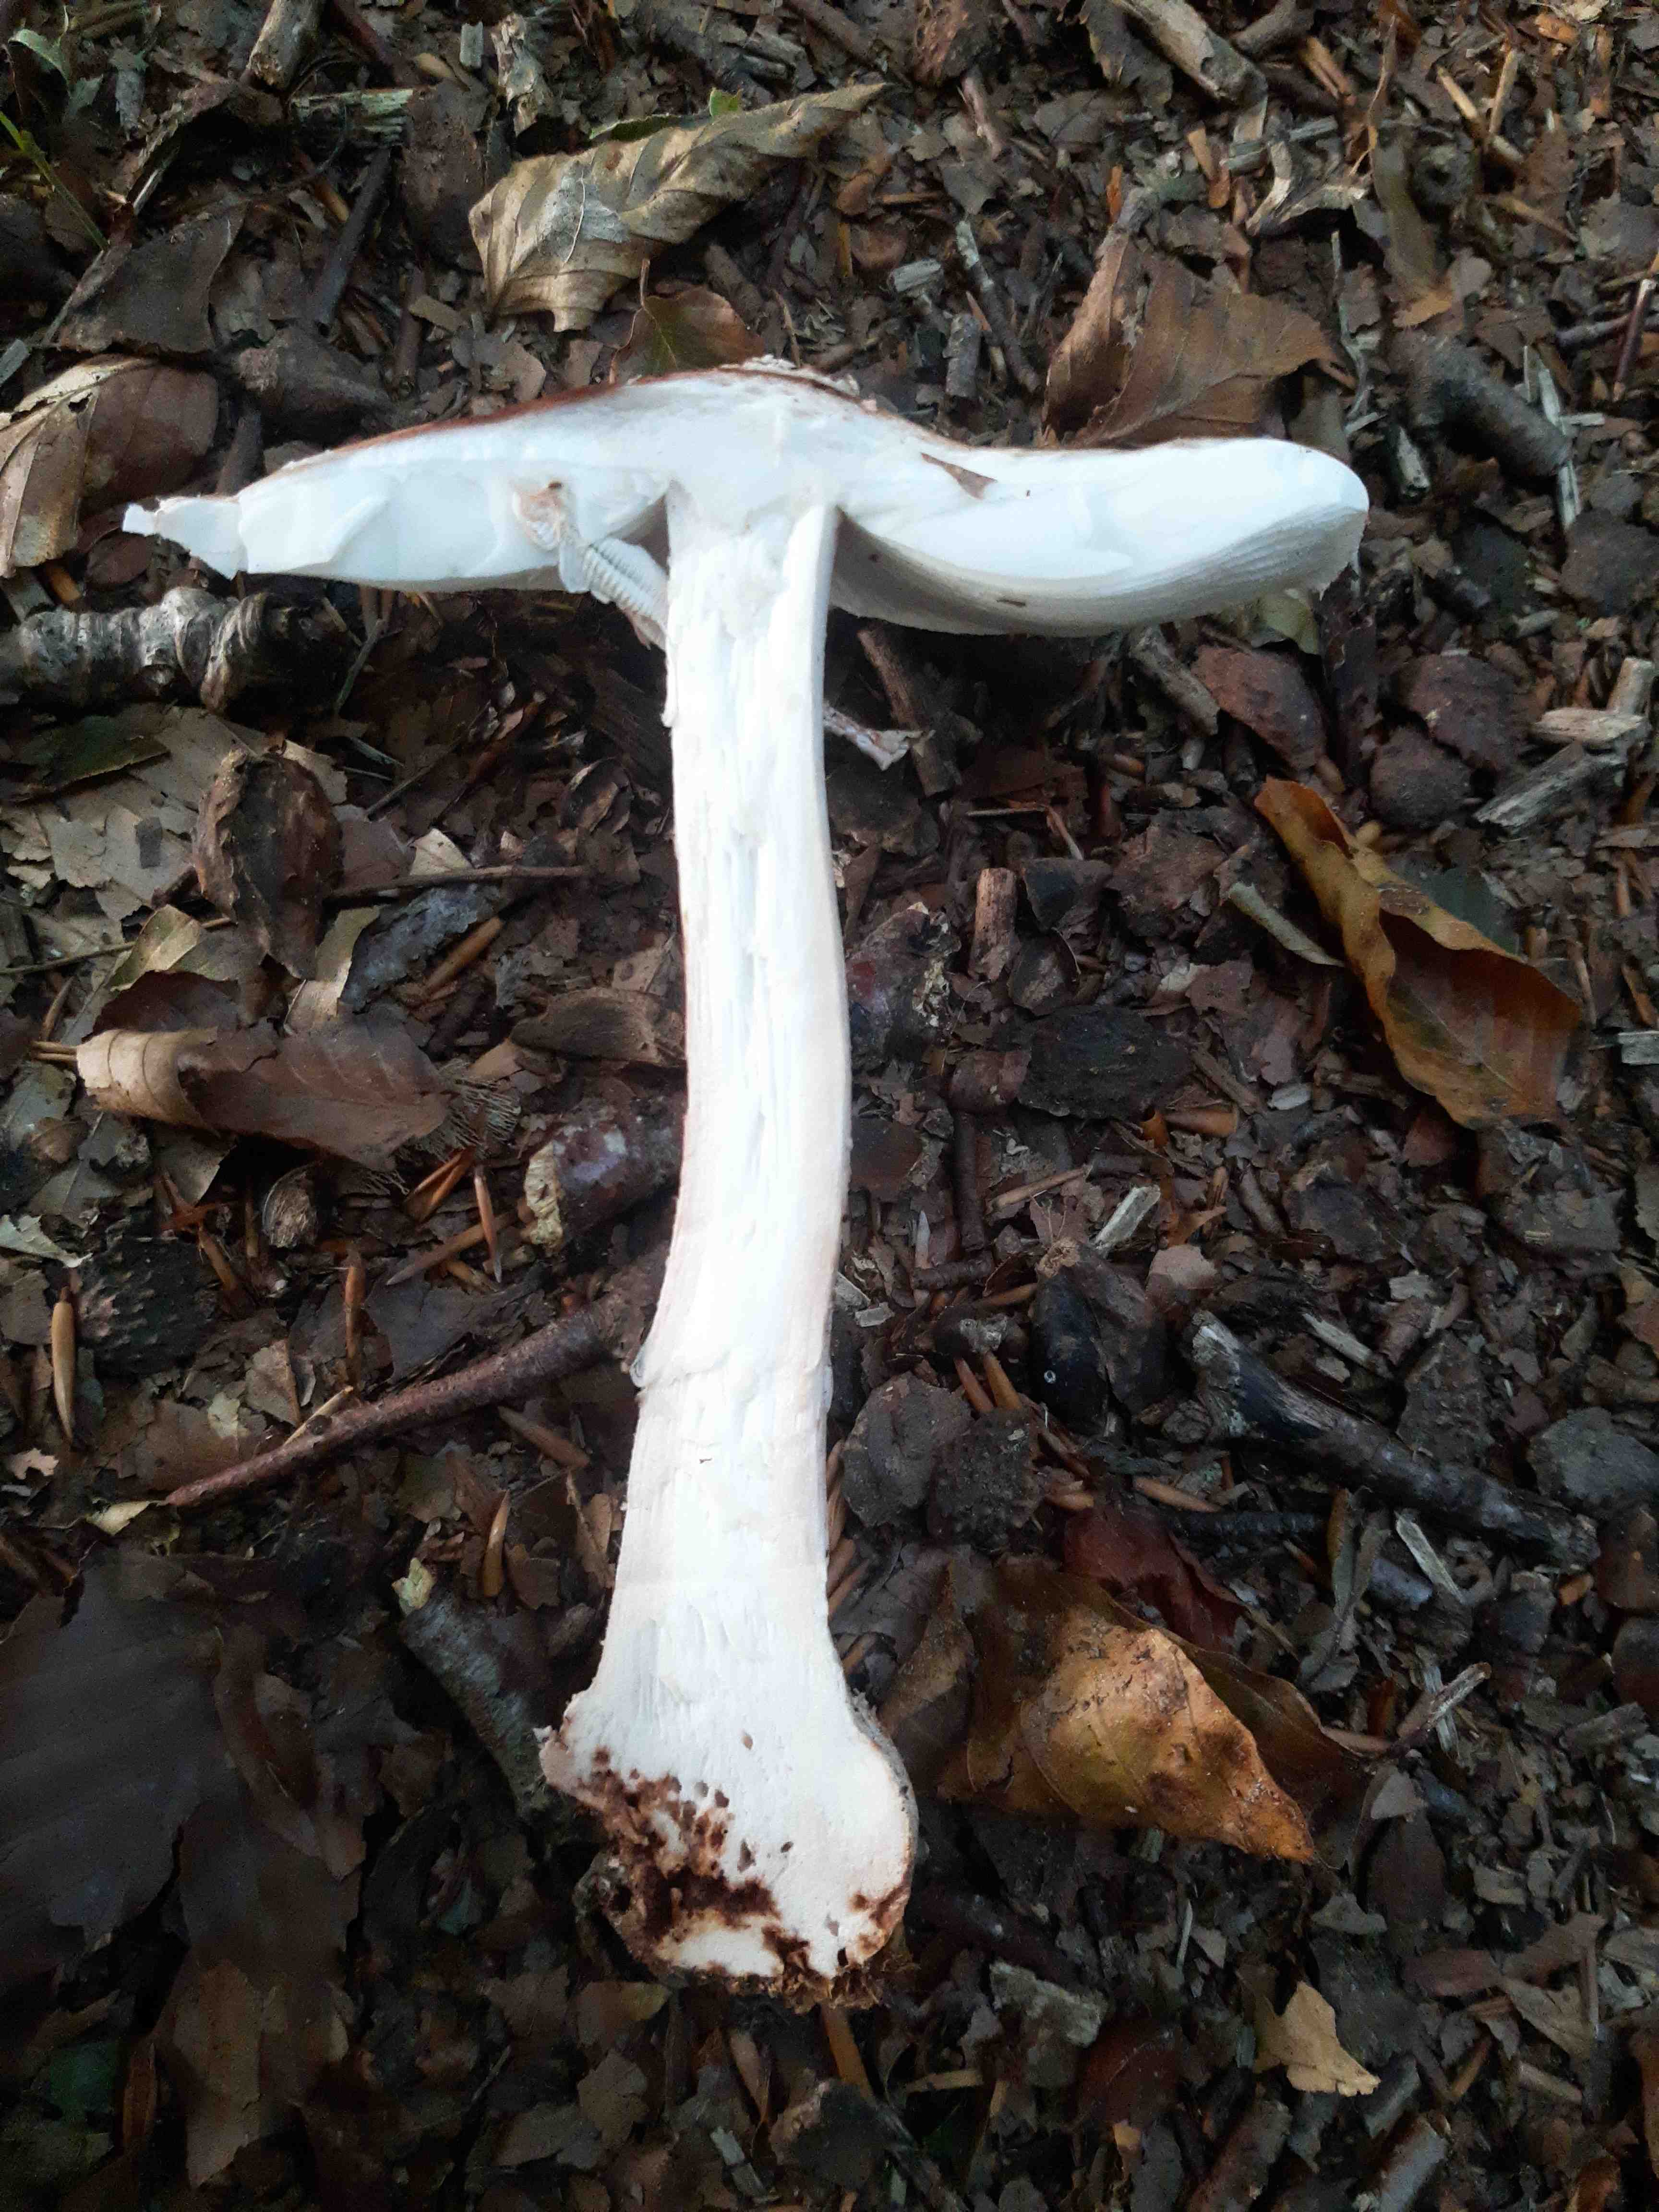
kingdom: Fungi
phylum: Basidiomycota
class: Agaricomycetes
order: Agaricales
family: Amanitaceae
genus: Amanita
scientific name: Amanita rubescens
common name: rødmende fluesvamp
